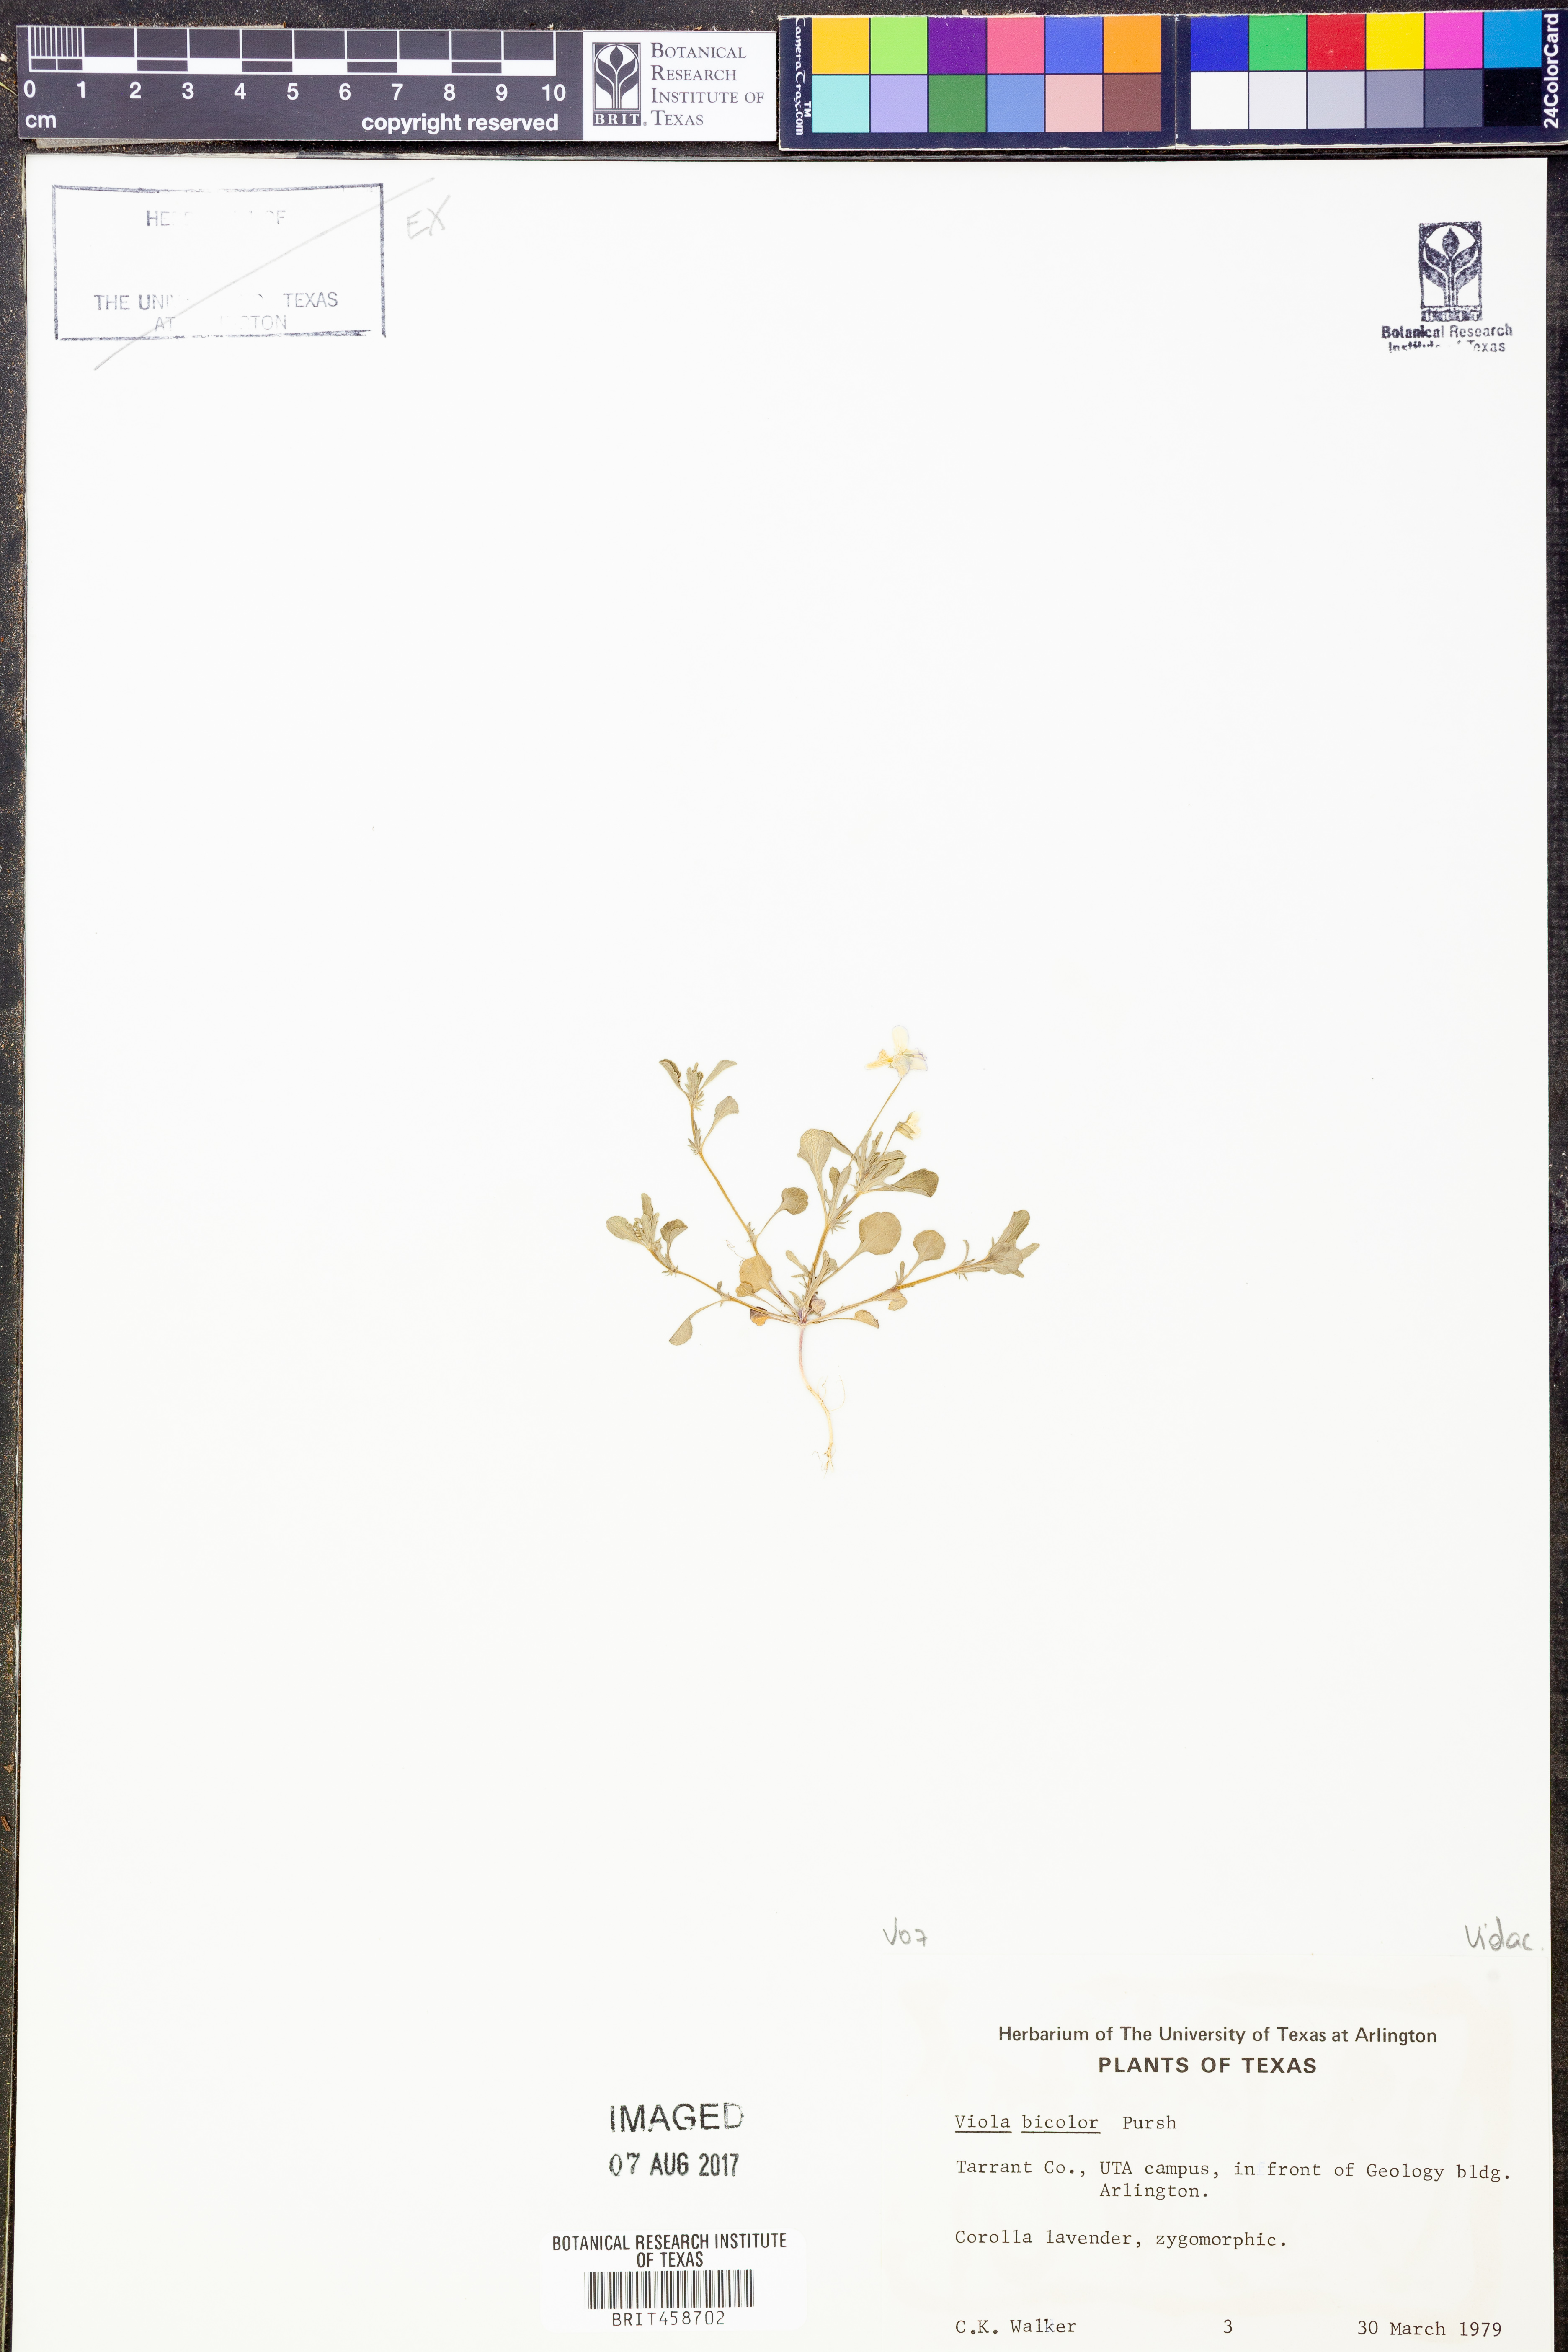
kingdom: Plantae
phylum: Tracheophyta
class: Magnoliopsida
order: Malpighiales
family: Violaceae
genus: Viola
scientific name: Viola rafinesquei
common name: American field pansy
